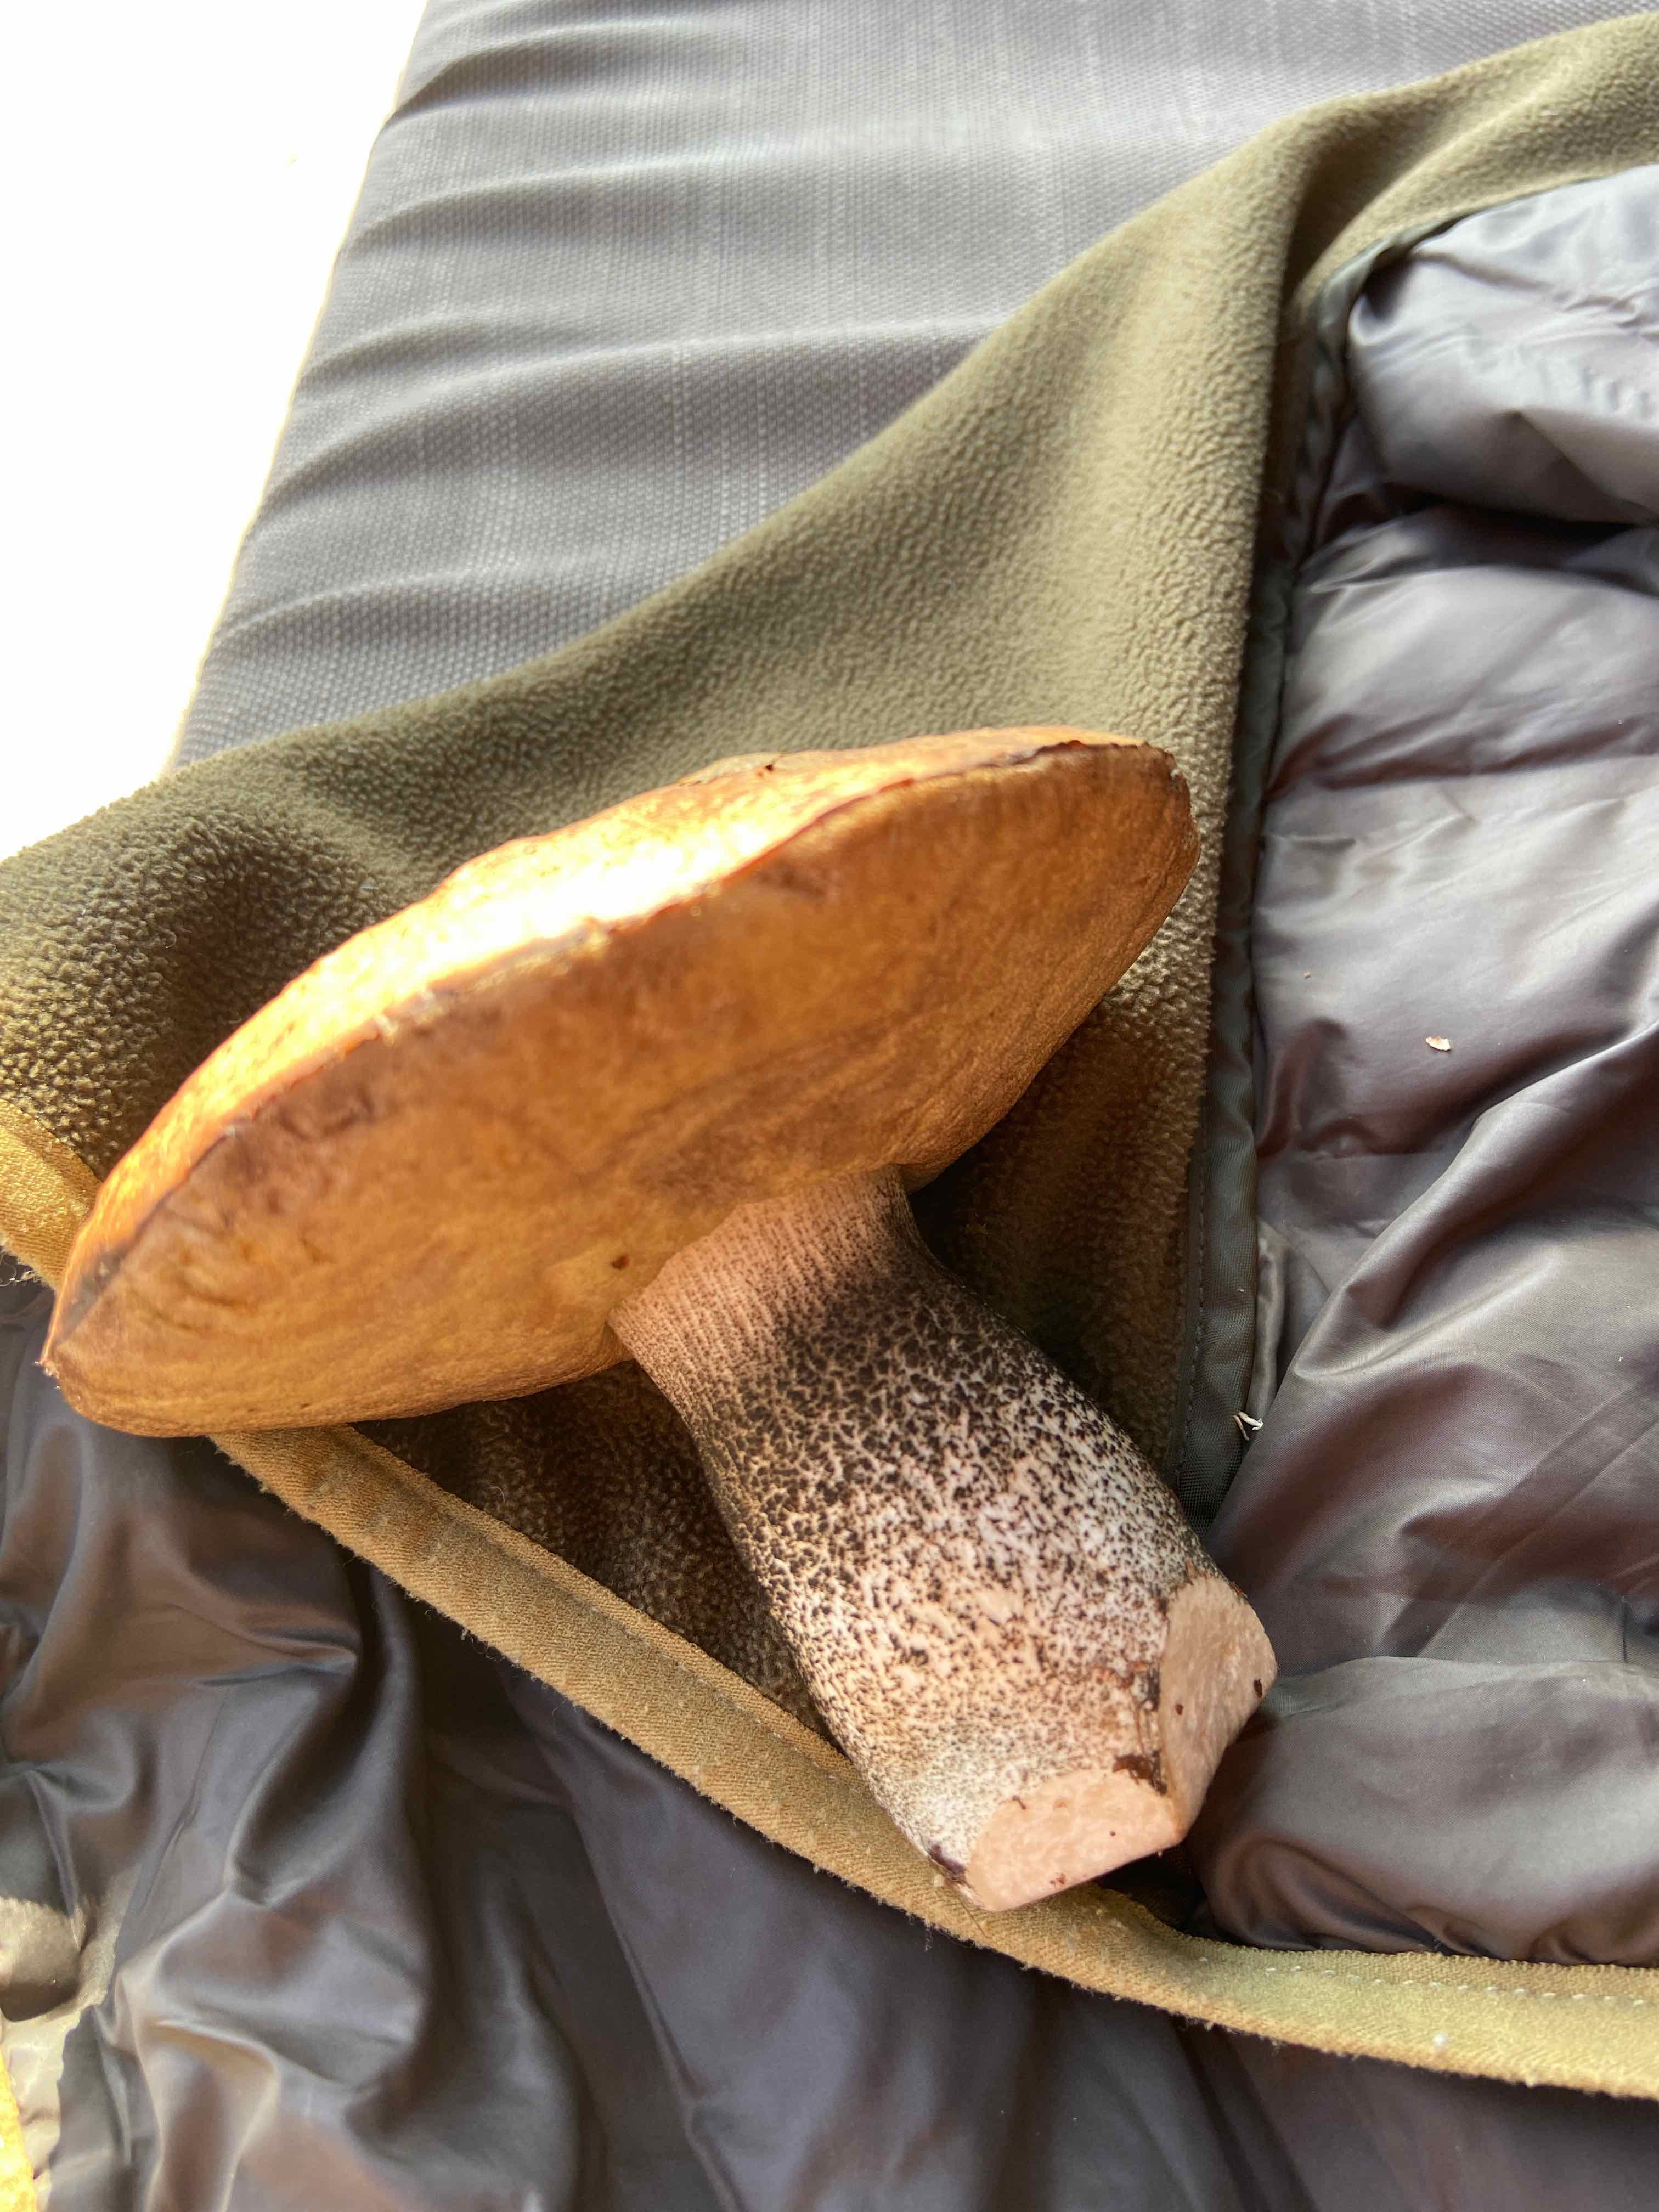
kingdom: Fungi
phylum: Basidiomycota
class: Agaricomycetes
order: Boletales
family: Boletaceae
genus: Leccinum
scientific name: Leccinum
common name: skælrørhat
